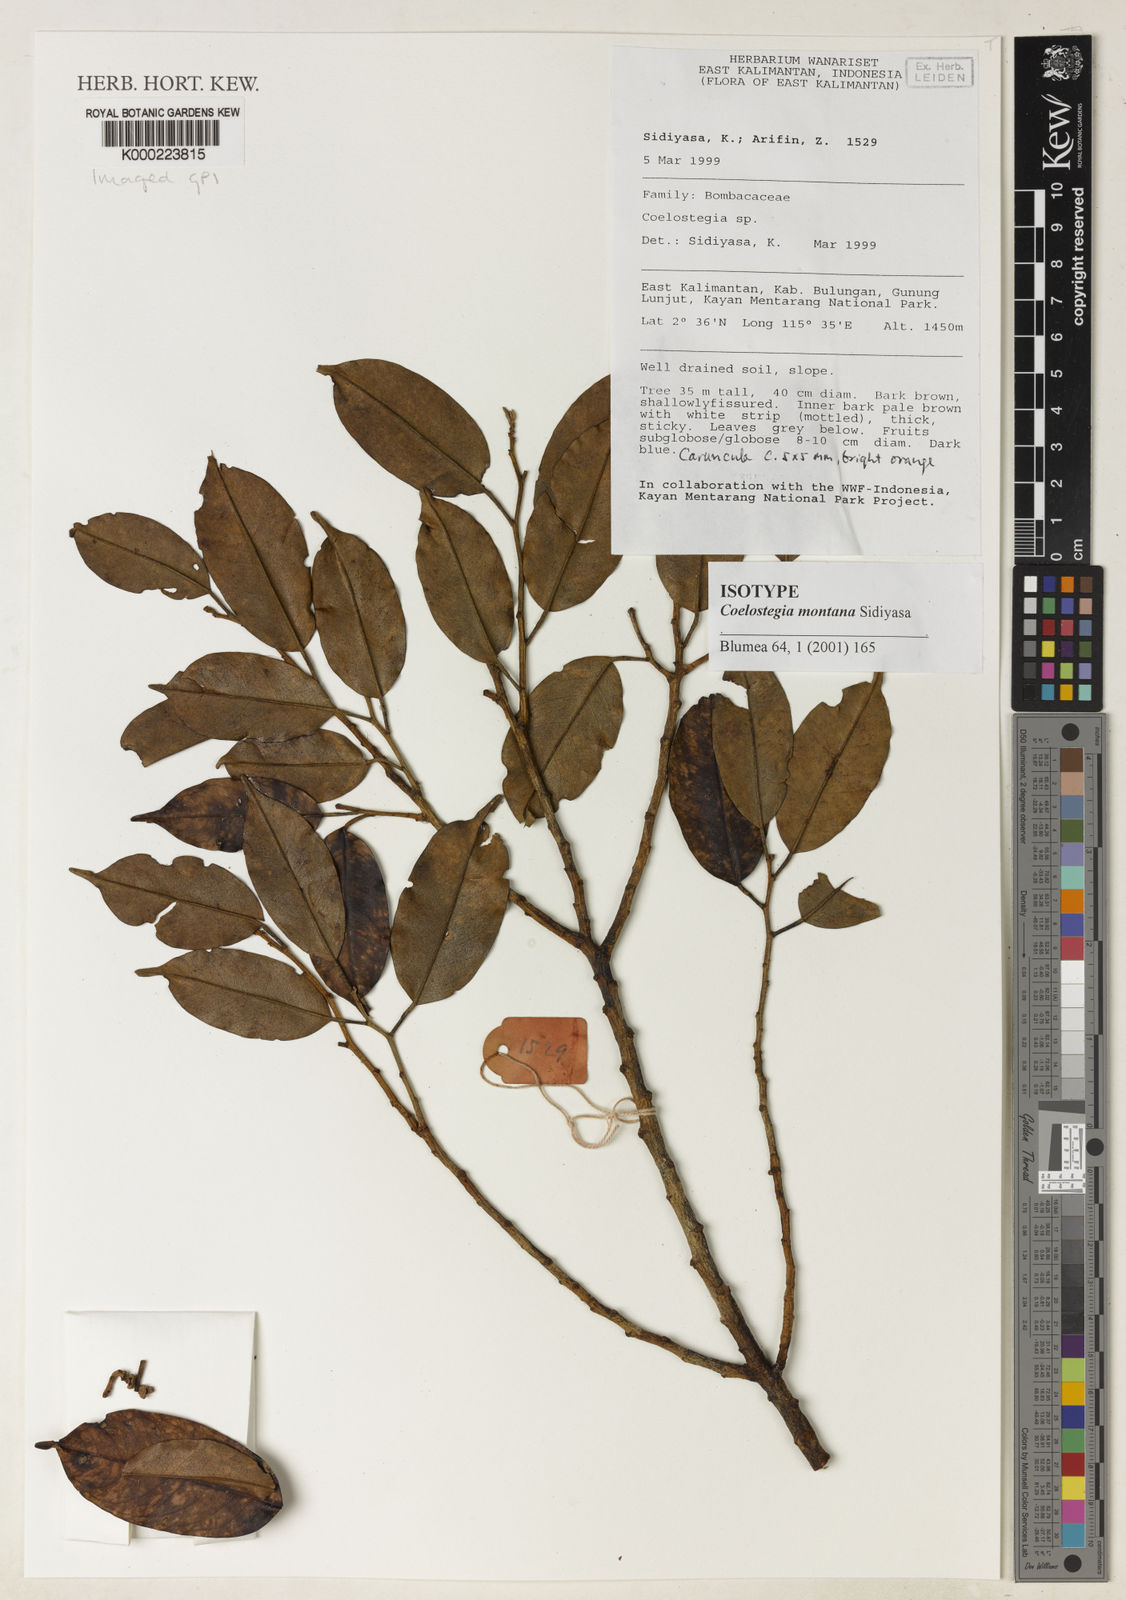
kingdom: Plantae
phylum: Tracheophyta
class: Magnoliopsida
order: Malvales
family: Malvaceae
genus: Coelostegia
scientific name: Coelostegia montana
